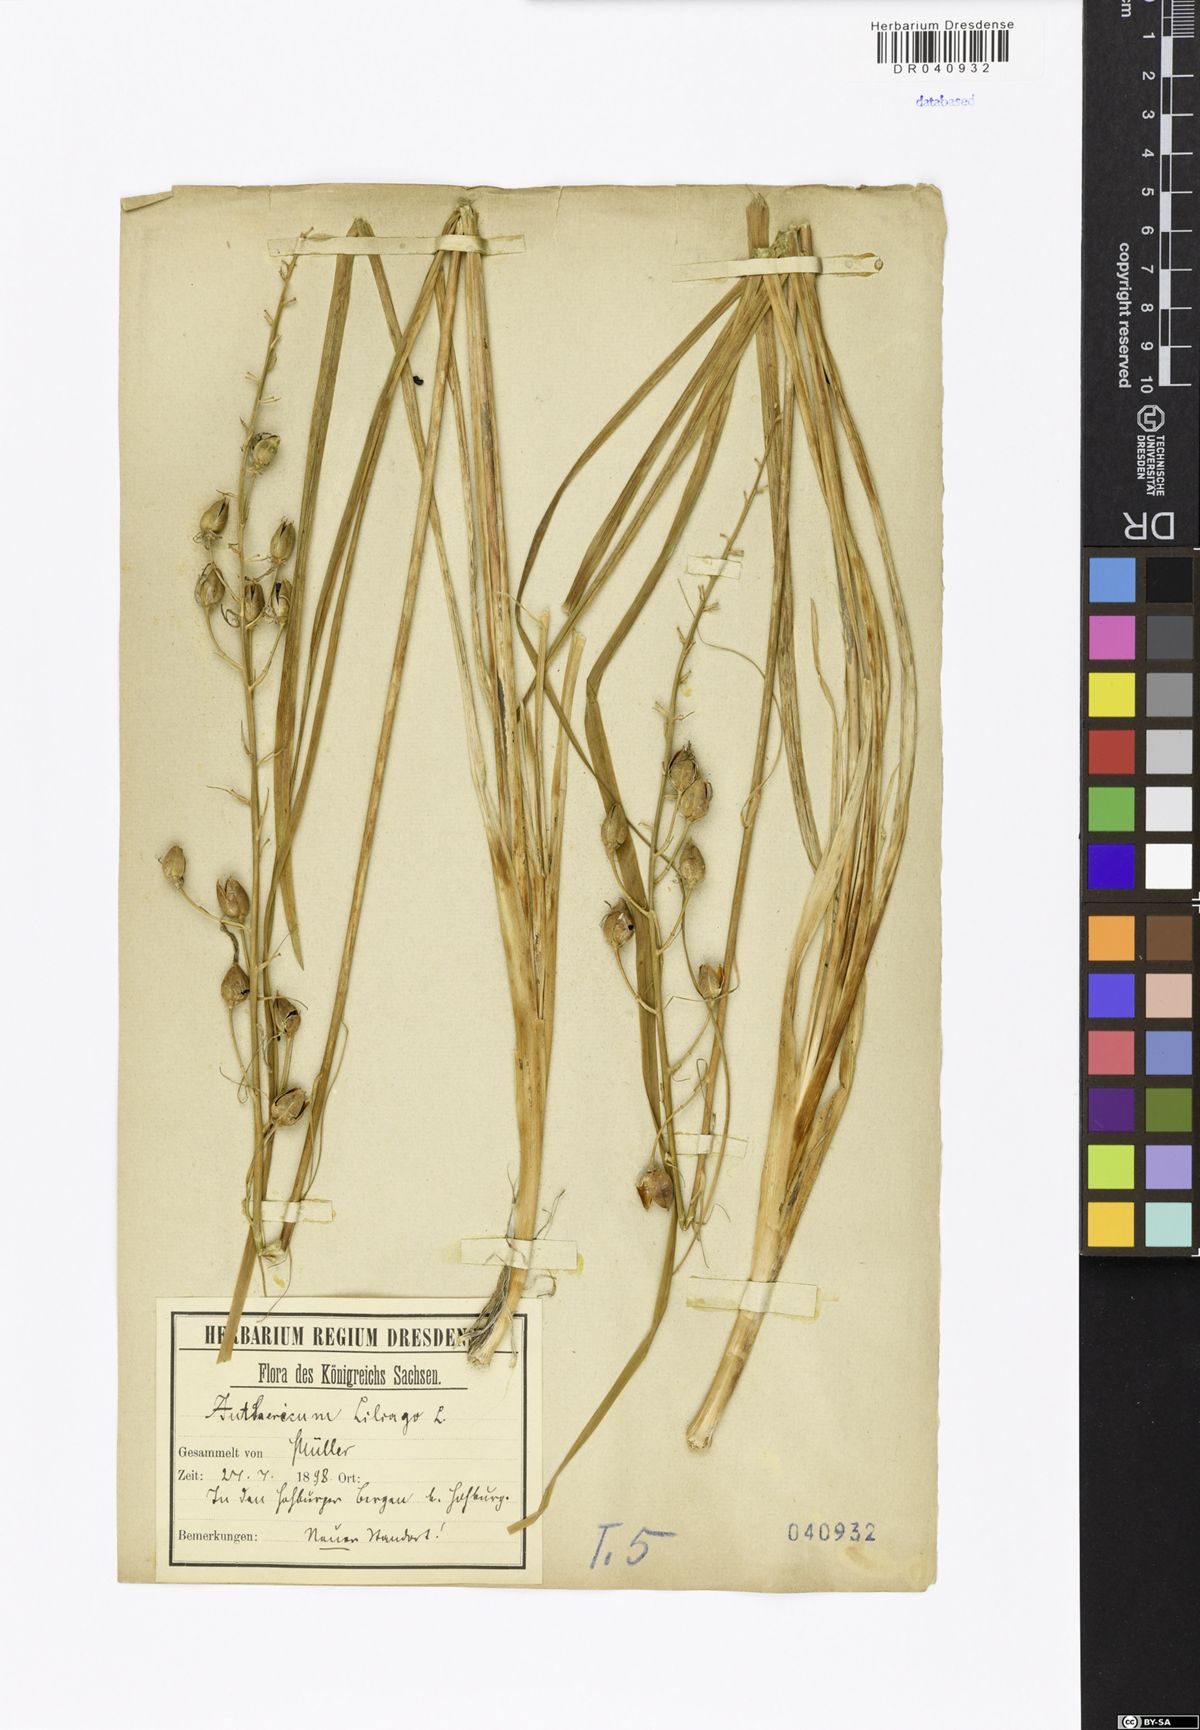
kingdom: Plantae
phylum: Tracheophyta
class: Liliopsida
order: Asparagales
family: Asparagaceae
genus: Anthericum
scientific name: Anthericum liliago
